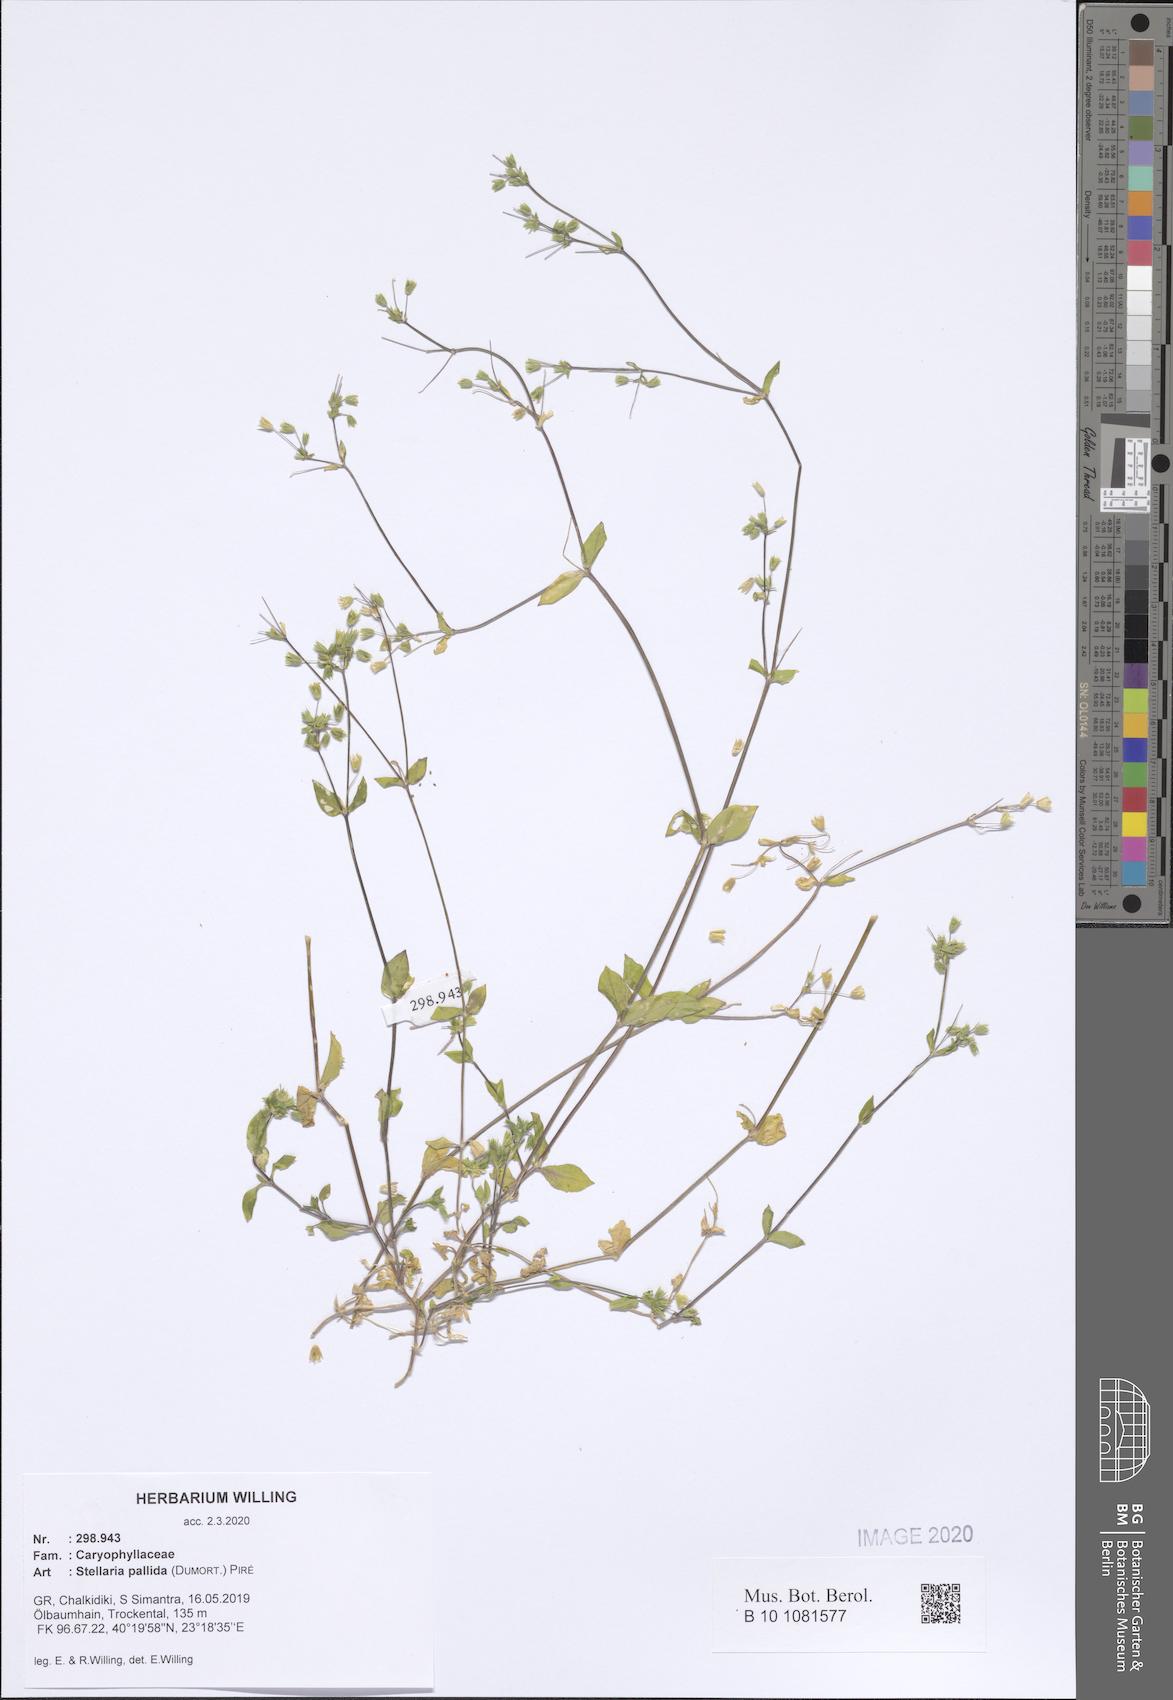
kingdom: Plantae
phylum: Tracheophyta
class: Magnoliopsida
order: Caryophyllales
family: Caryophyllaceae
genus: Stellaria
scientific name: Stellaria apetala
